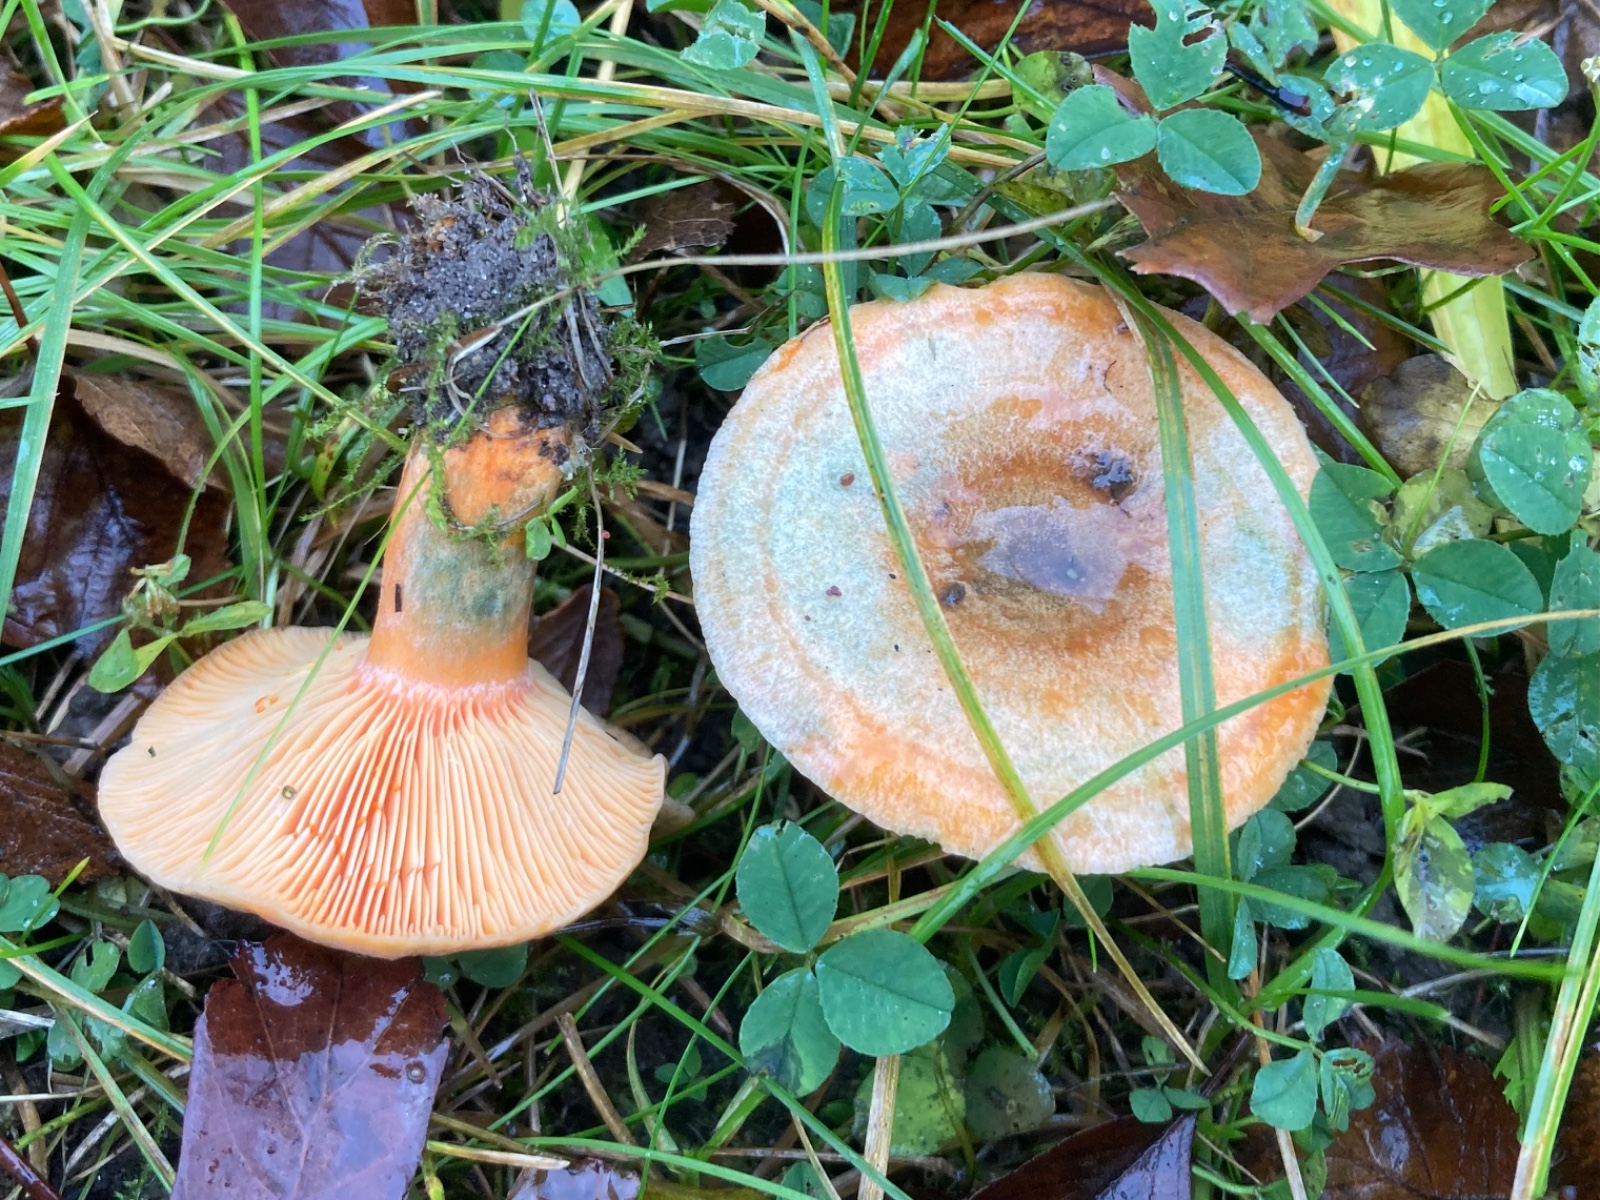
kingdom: Fungi
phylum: Basidiomycota
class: Agaricomycetes
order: Russulales
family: Russulaceae
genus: Lactarius
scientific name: Lactarius deterrimus
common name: gran-mælkehat
